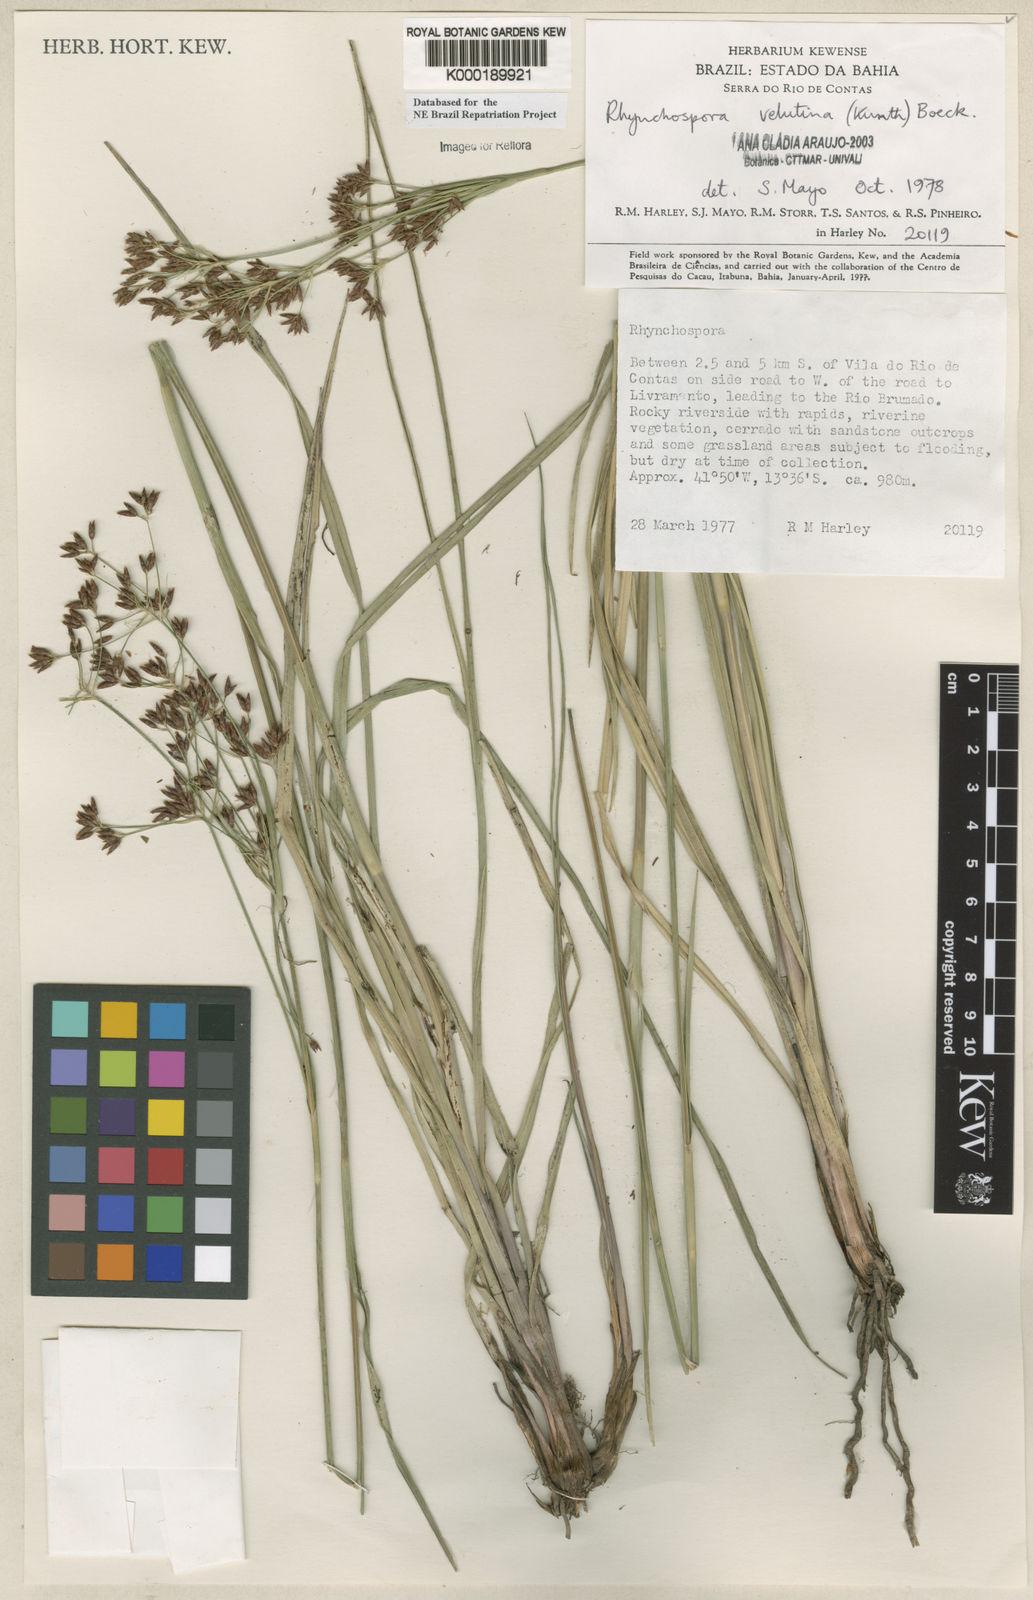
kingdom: Plantae
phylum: Tracheophyta
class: Liliopsida
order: Poales
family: Cyperaceae
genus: Rhynchospora
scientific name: Rhynchospora velutina
